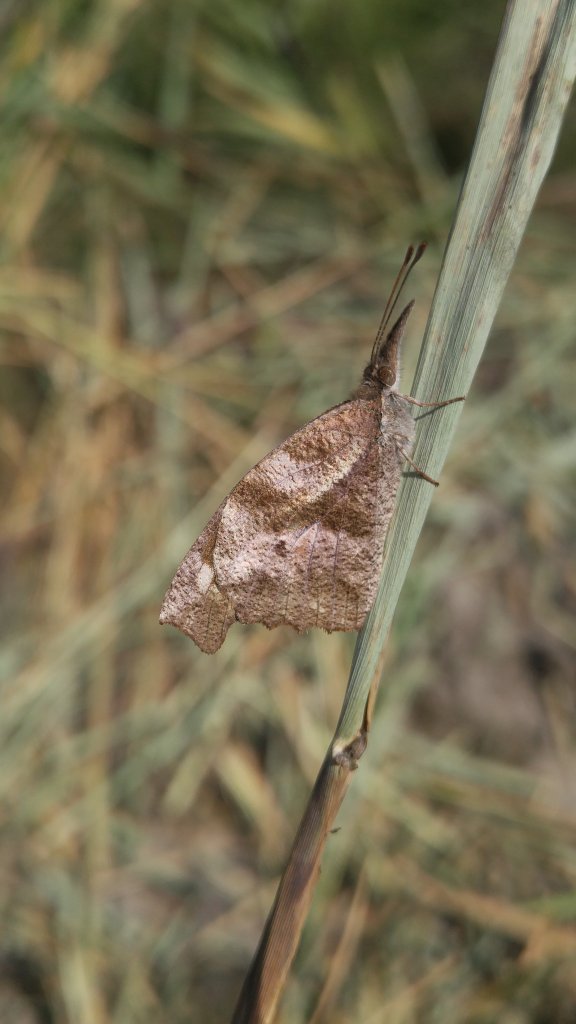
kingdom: Animalia
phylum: Arthropoda
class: Insecta
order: Lepidoptera
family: Nymphalidae
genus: Libytheana
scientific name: Libytheana carinenta
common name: American Snout
